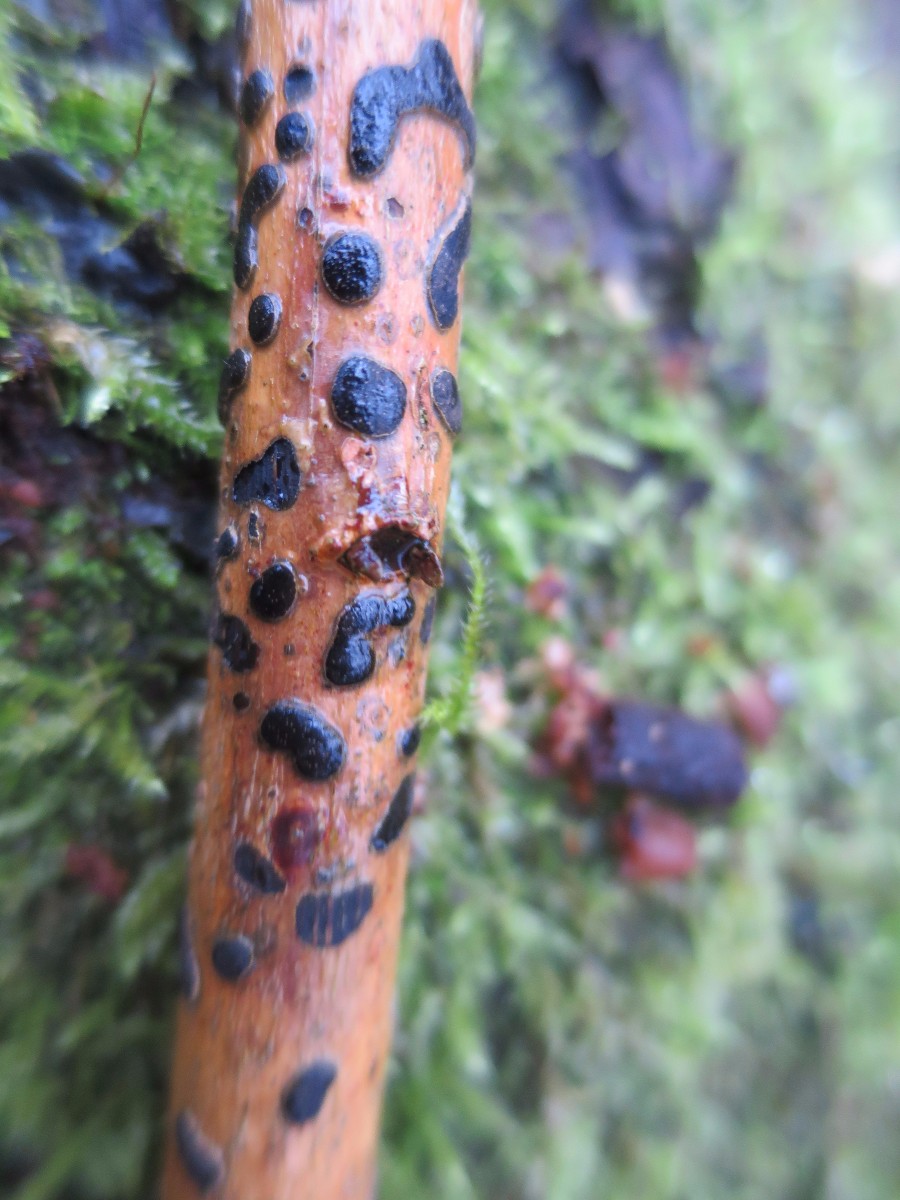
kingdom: Fungi
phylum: Ascomycota
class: Sordariomycetes
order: Xylariales
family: Diatrypaceae
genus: Diatrype
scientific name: Diatrype bullata
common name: pile-kulskorpe
